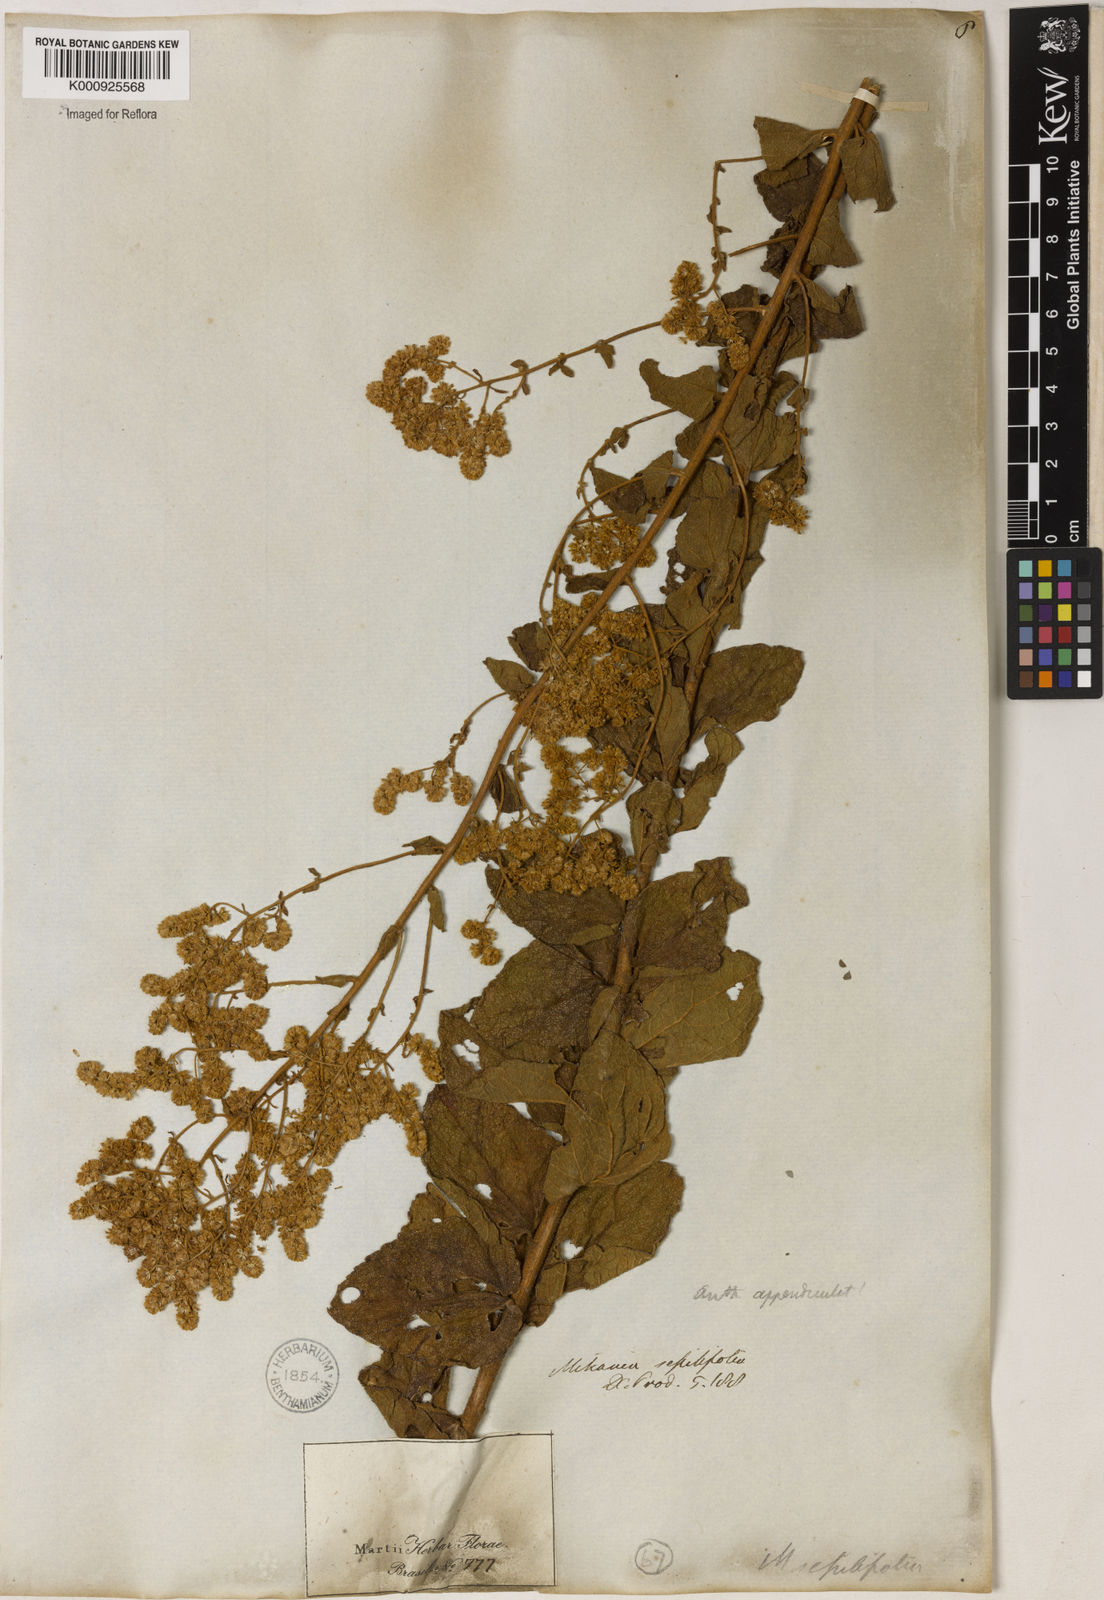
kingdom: Plantae
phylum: Tracheophyta
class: Magnoliopsida
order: Asterales
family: Asteraceae
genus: Mikania
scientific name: Mikania sessilifolia
